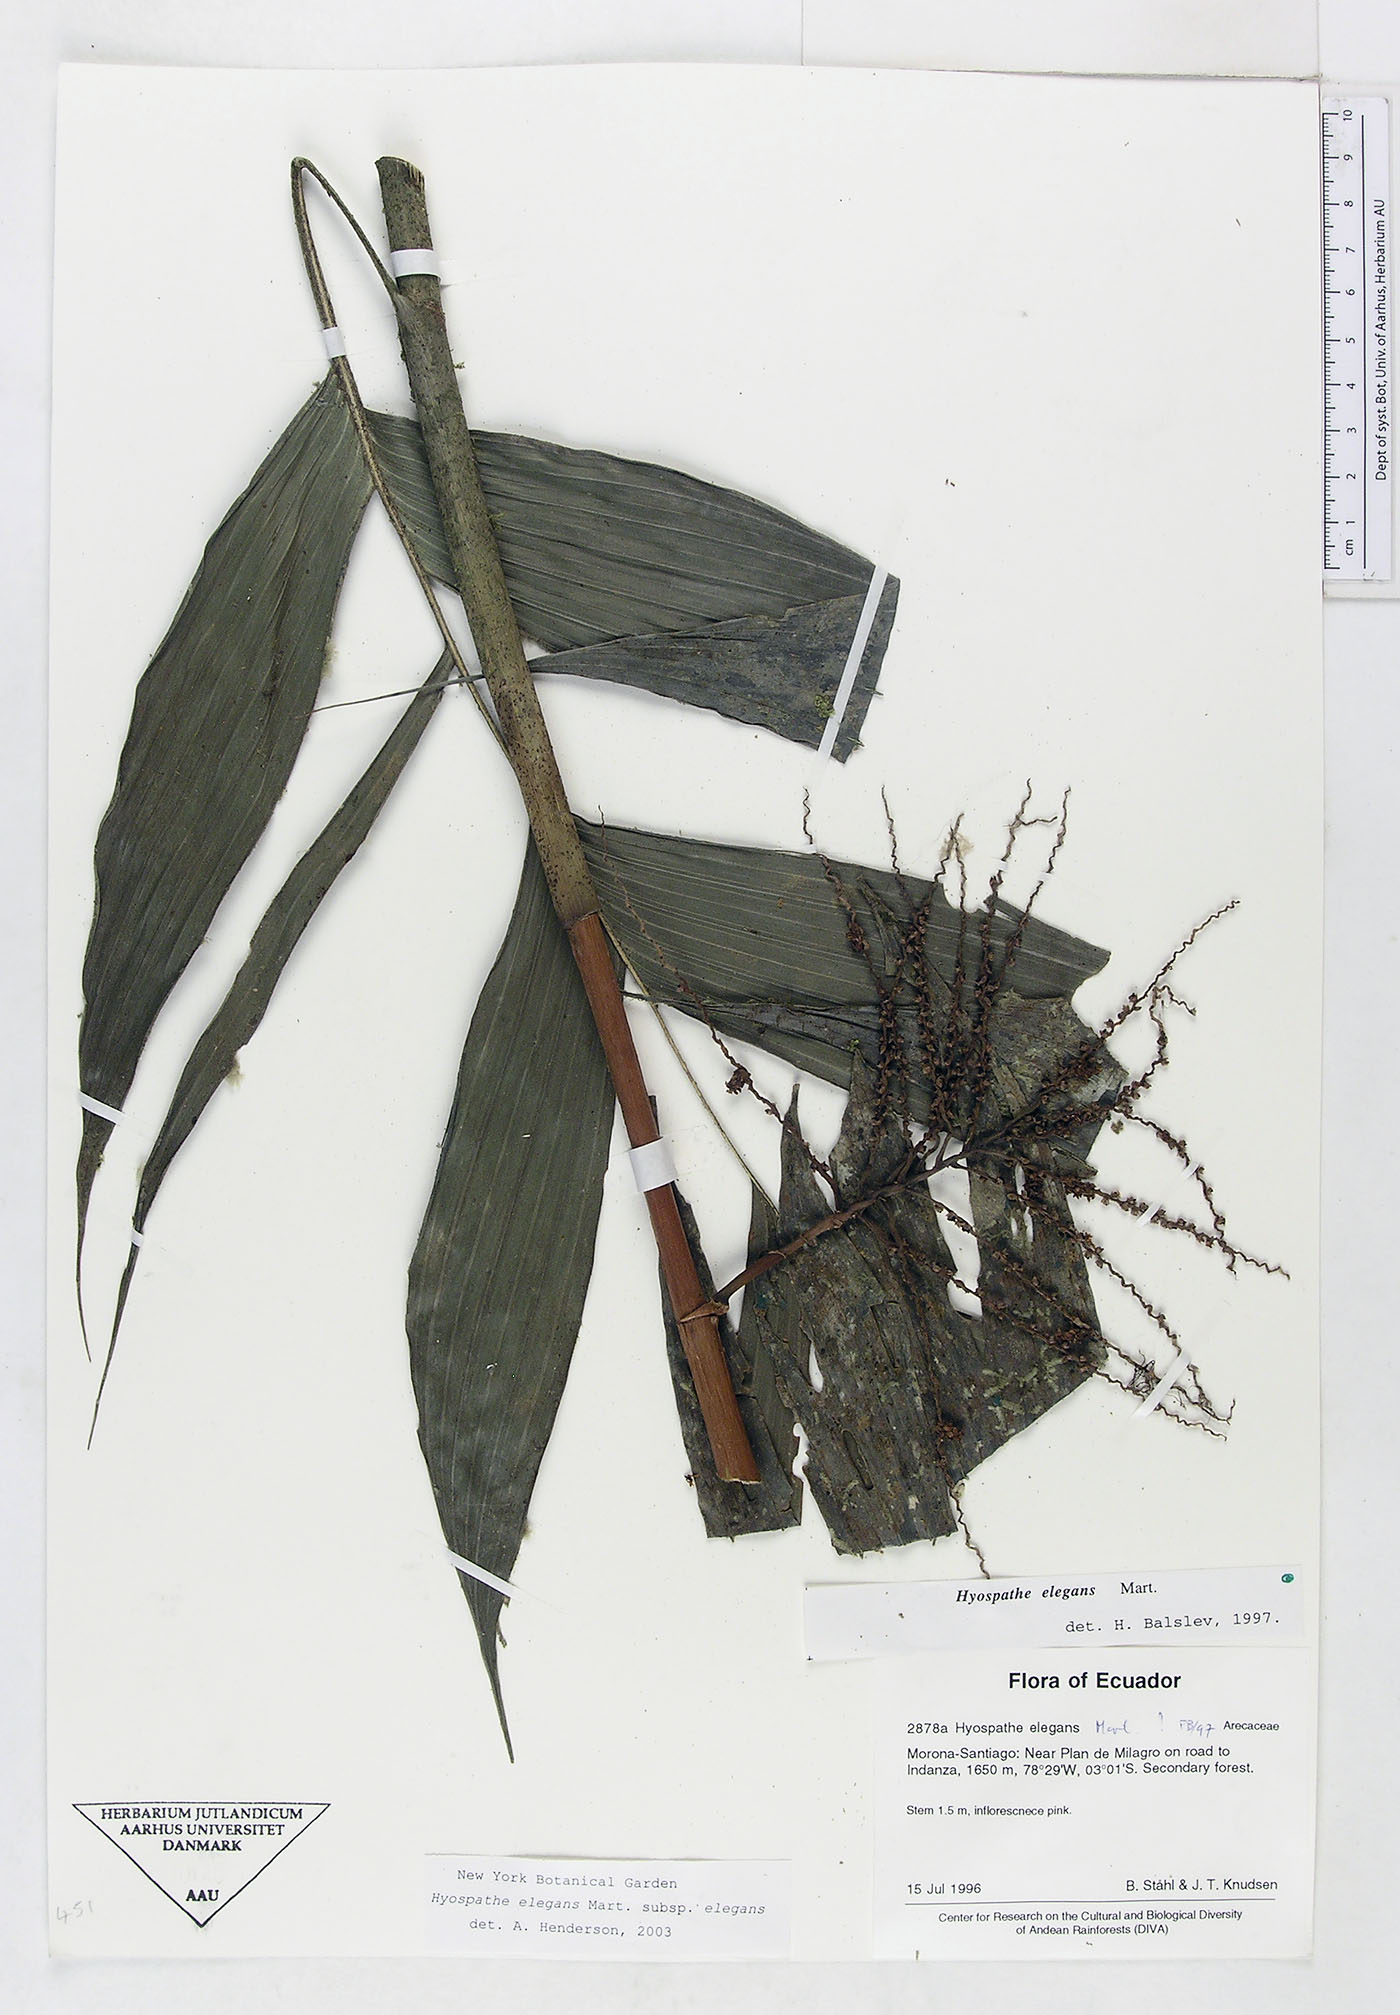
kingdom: Plantae
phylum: Tracheophyta
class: Liliopsida
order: Arecales
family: Arecaceae
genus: Hyospathe
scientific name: Hyospathe elegans
